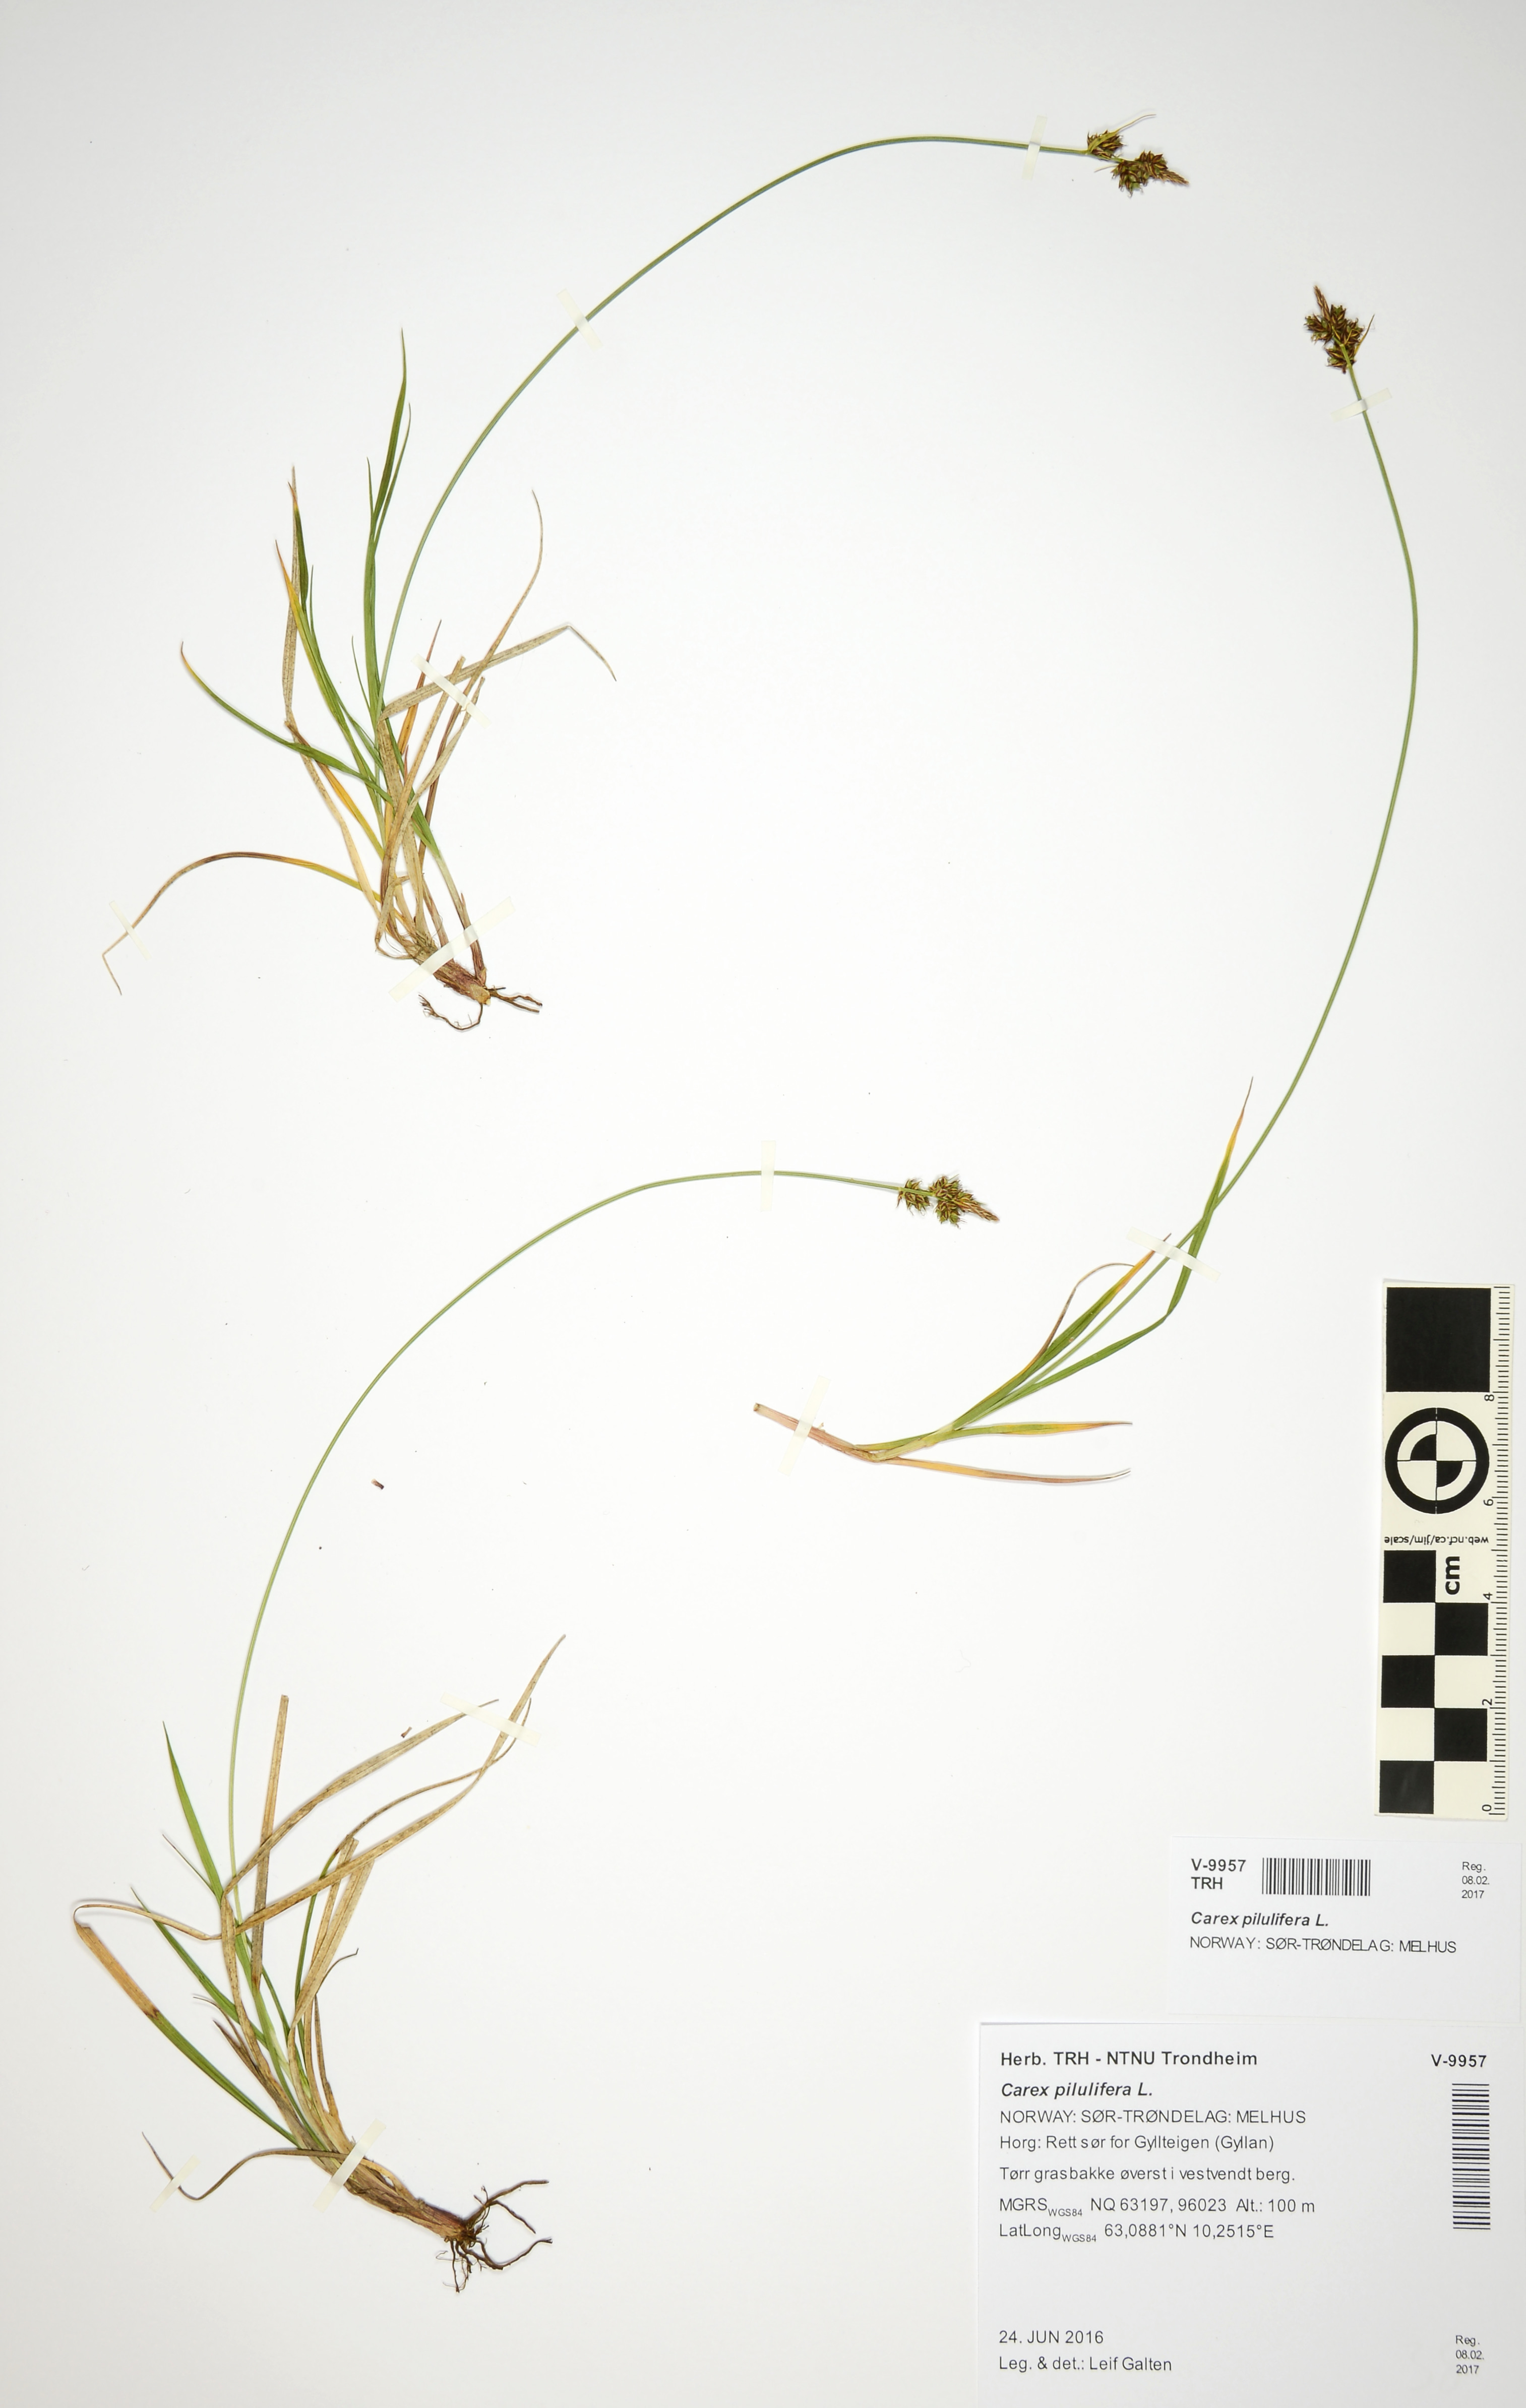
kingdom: Plantae
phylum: Tracheophyta
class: Liliopsida
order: Poales
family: Cyperaceae
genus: Carex
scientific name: Carex pilulifera
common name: Pill sedge
